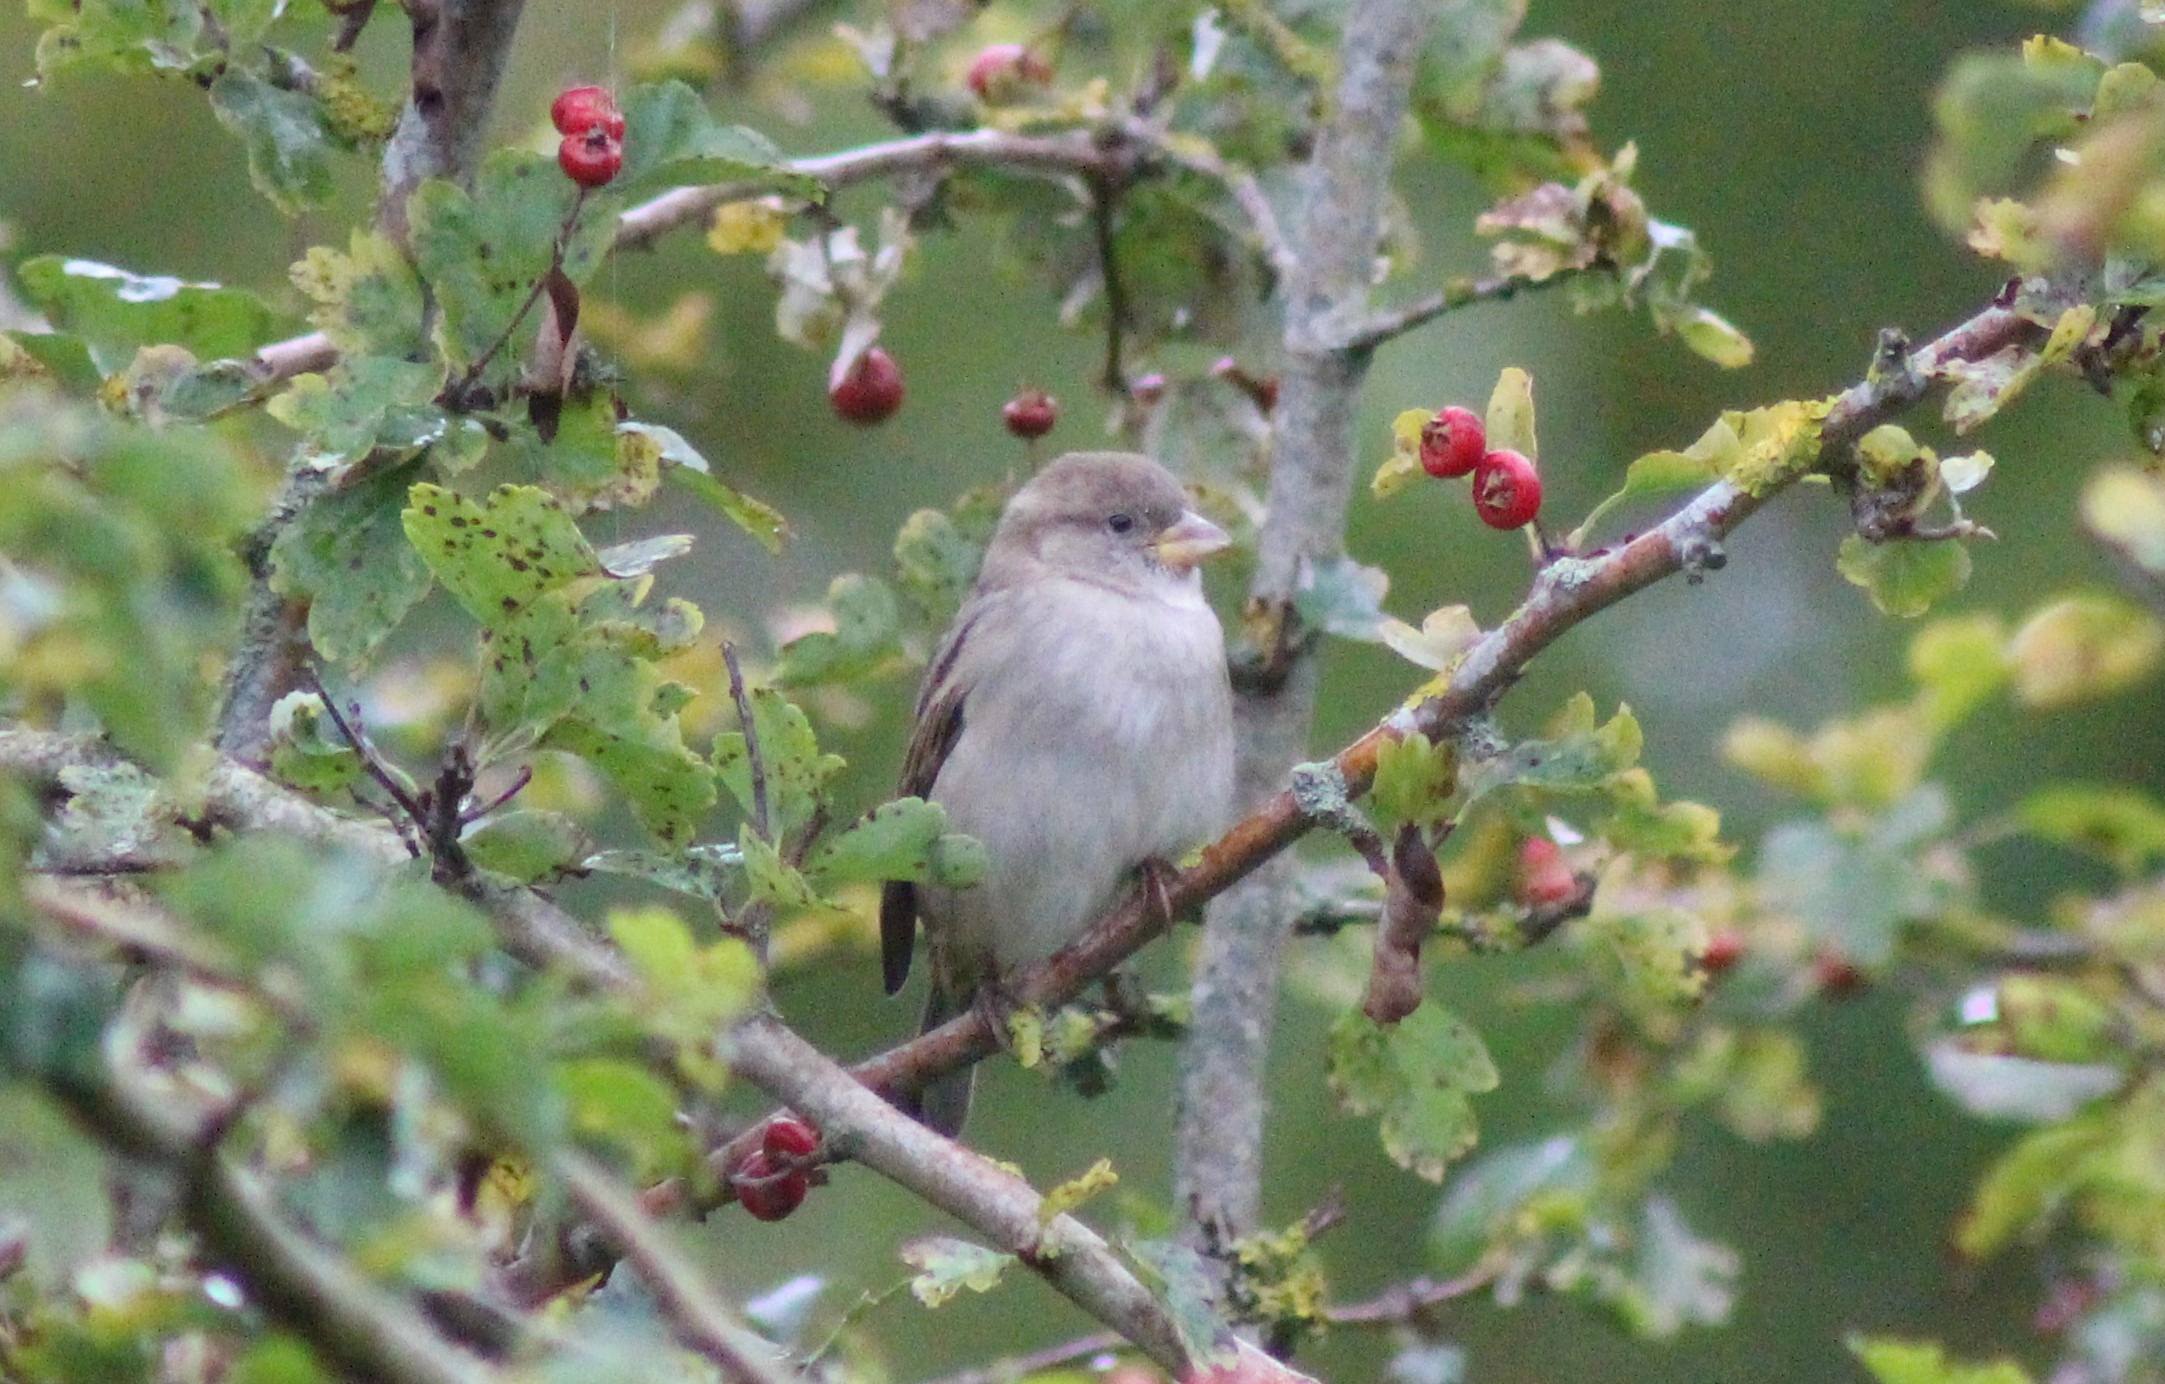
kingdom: Animalia
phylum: Chordata
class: Aves
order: Passeriformes
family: Passeridae
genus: Passer
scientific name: Passer domesticus
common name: Gråspurv
